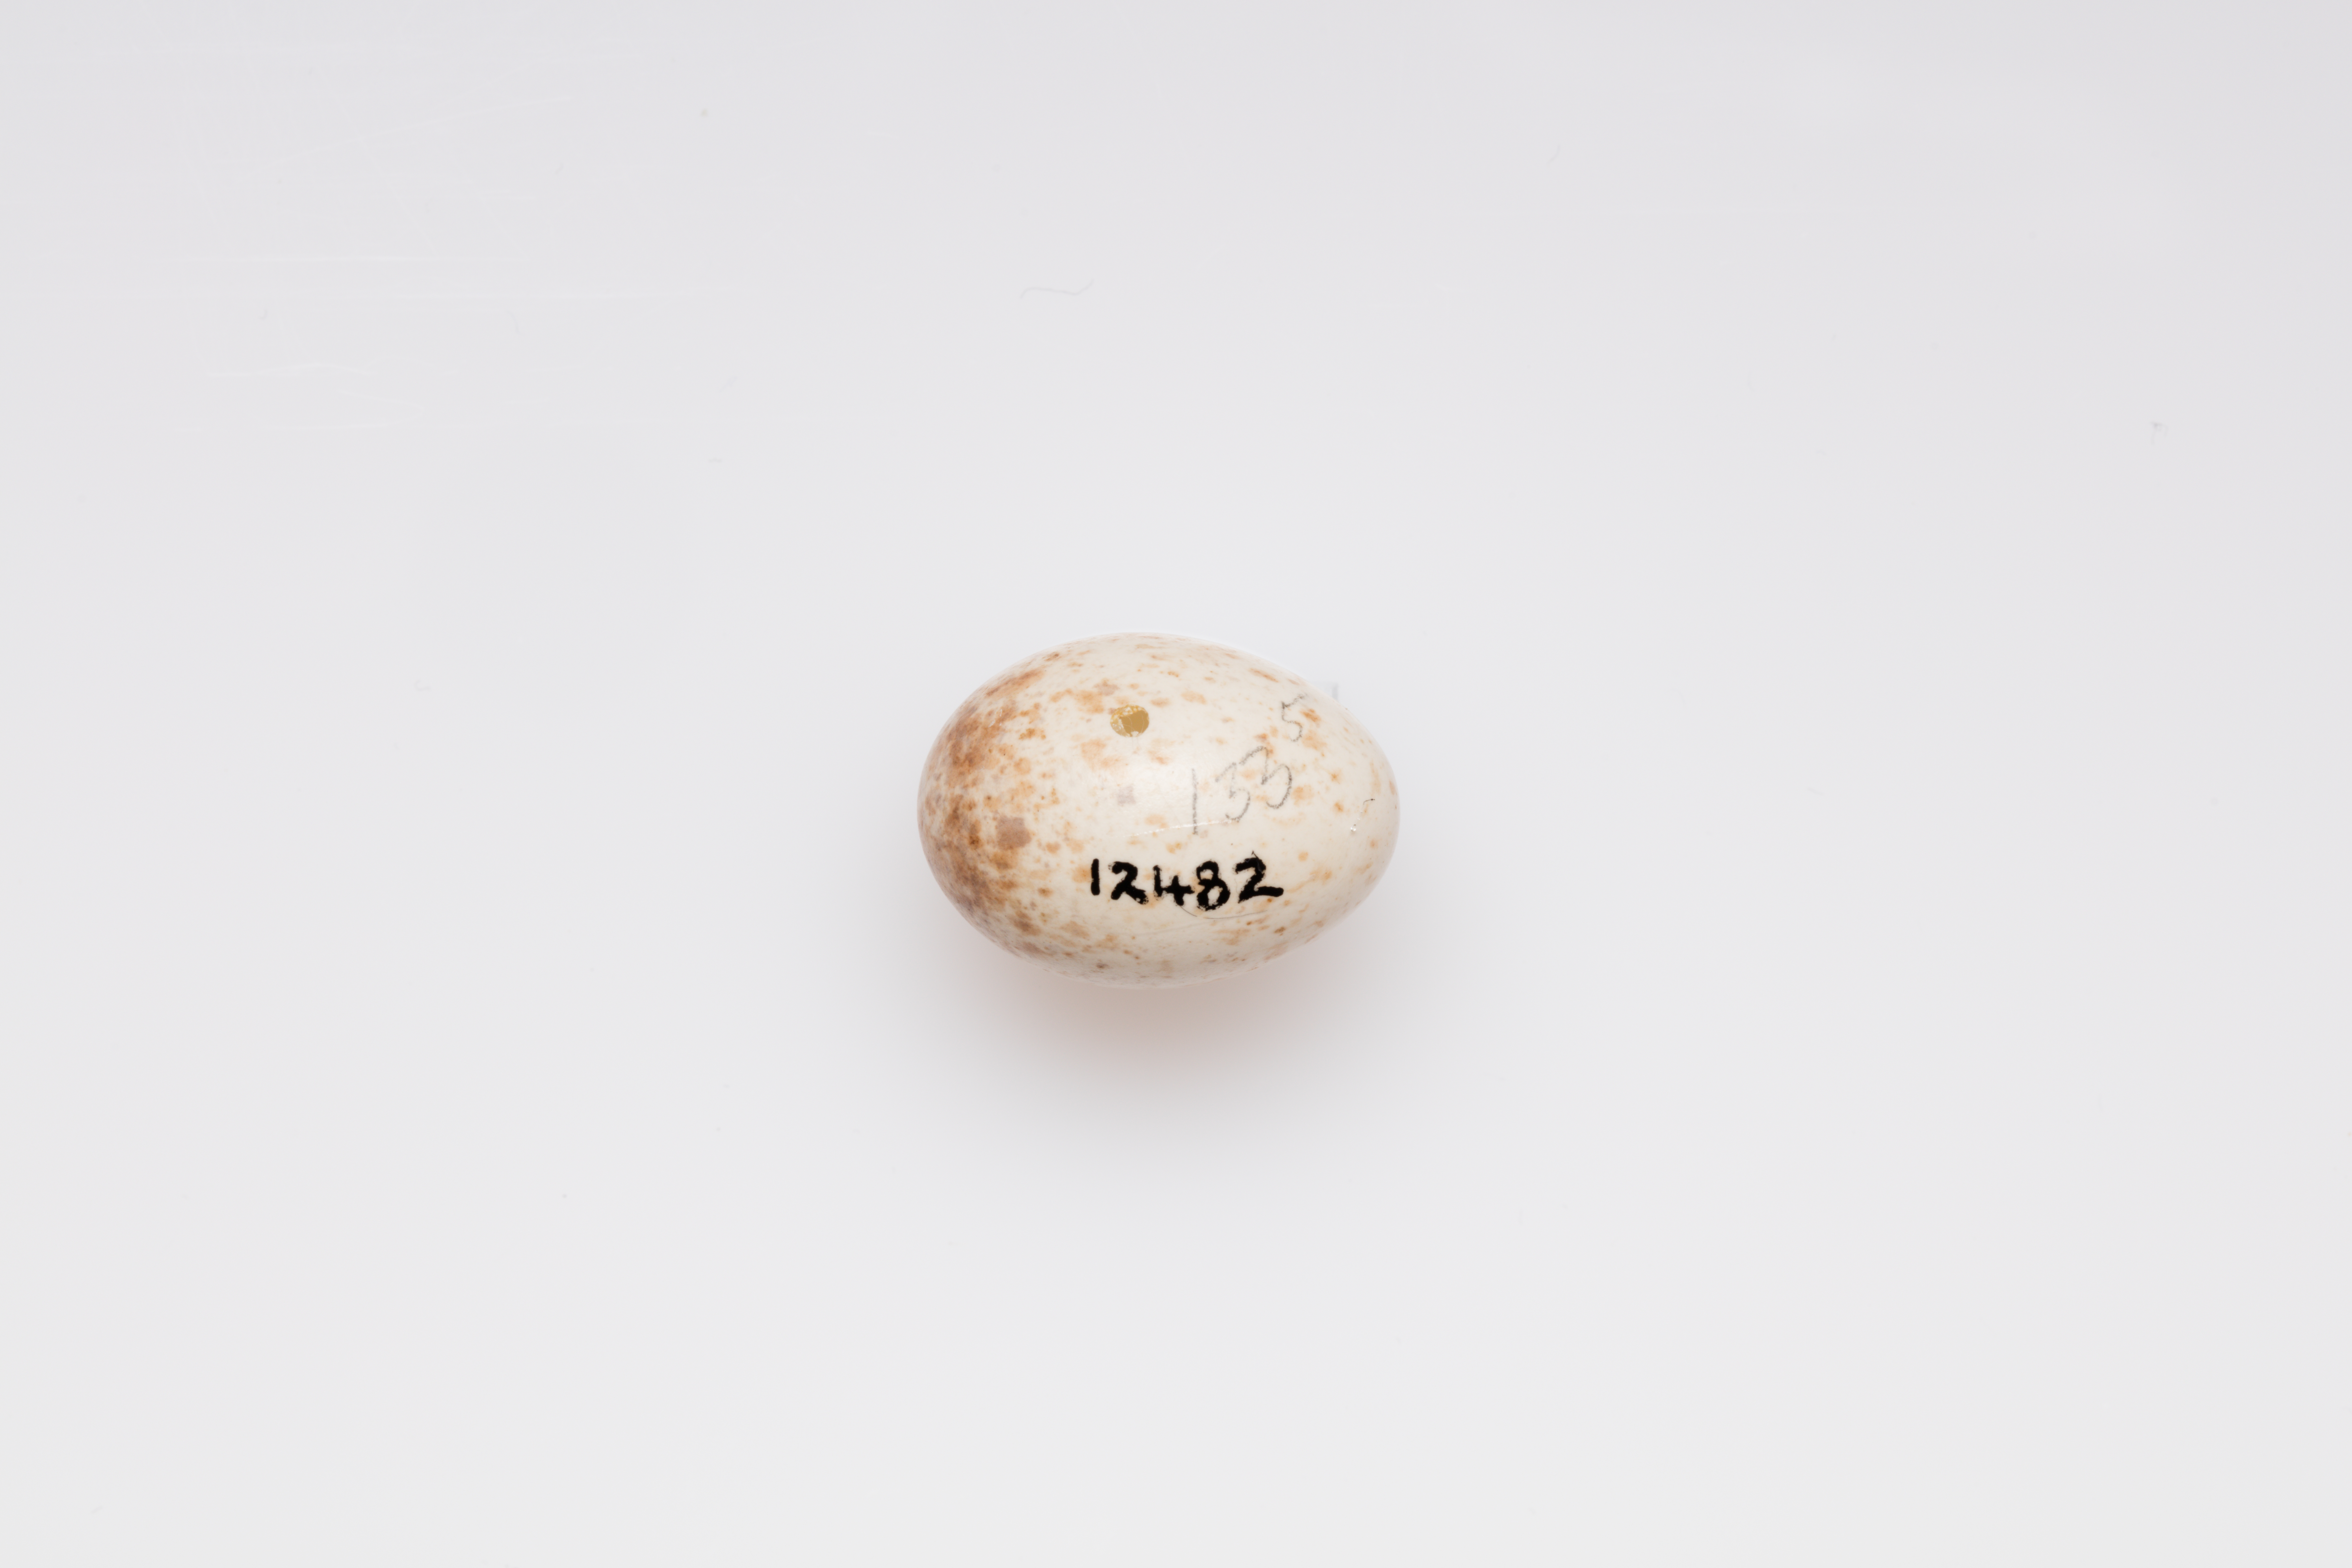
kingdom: Animalia
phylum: Chordata
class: Aves
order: Passeriformes
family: Muscicapidae
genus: Erithacus
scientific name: Erithacus rubecula
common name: European robin
